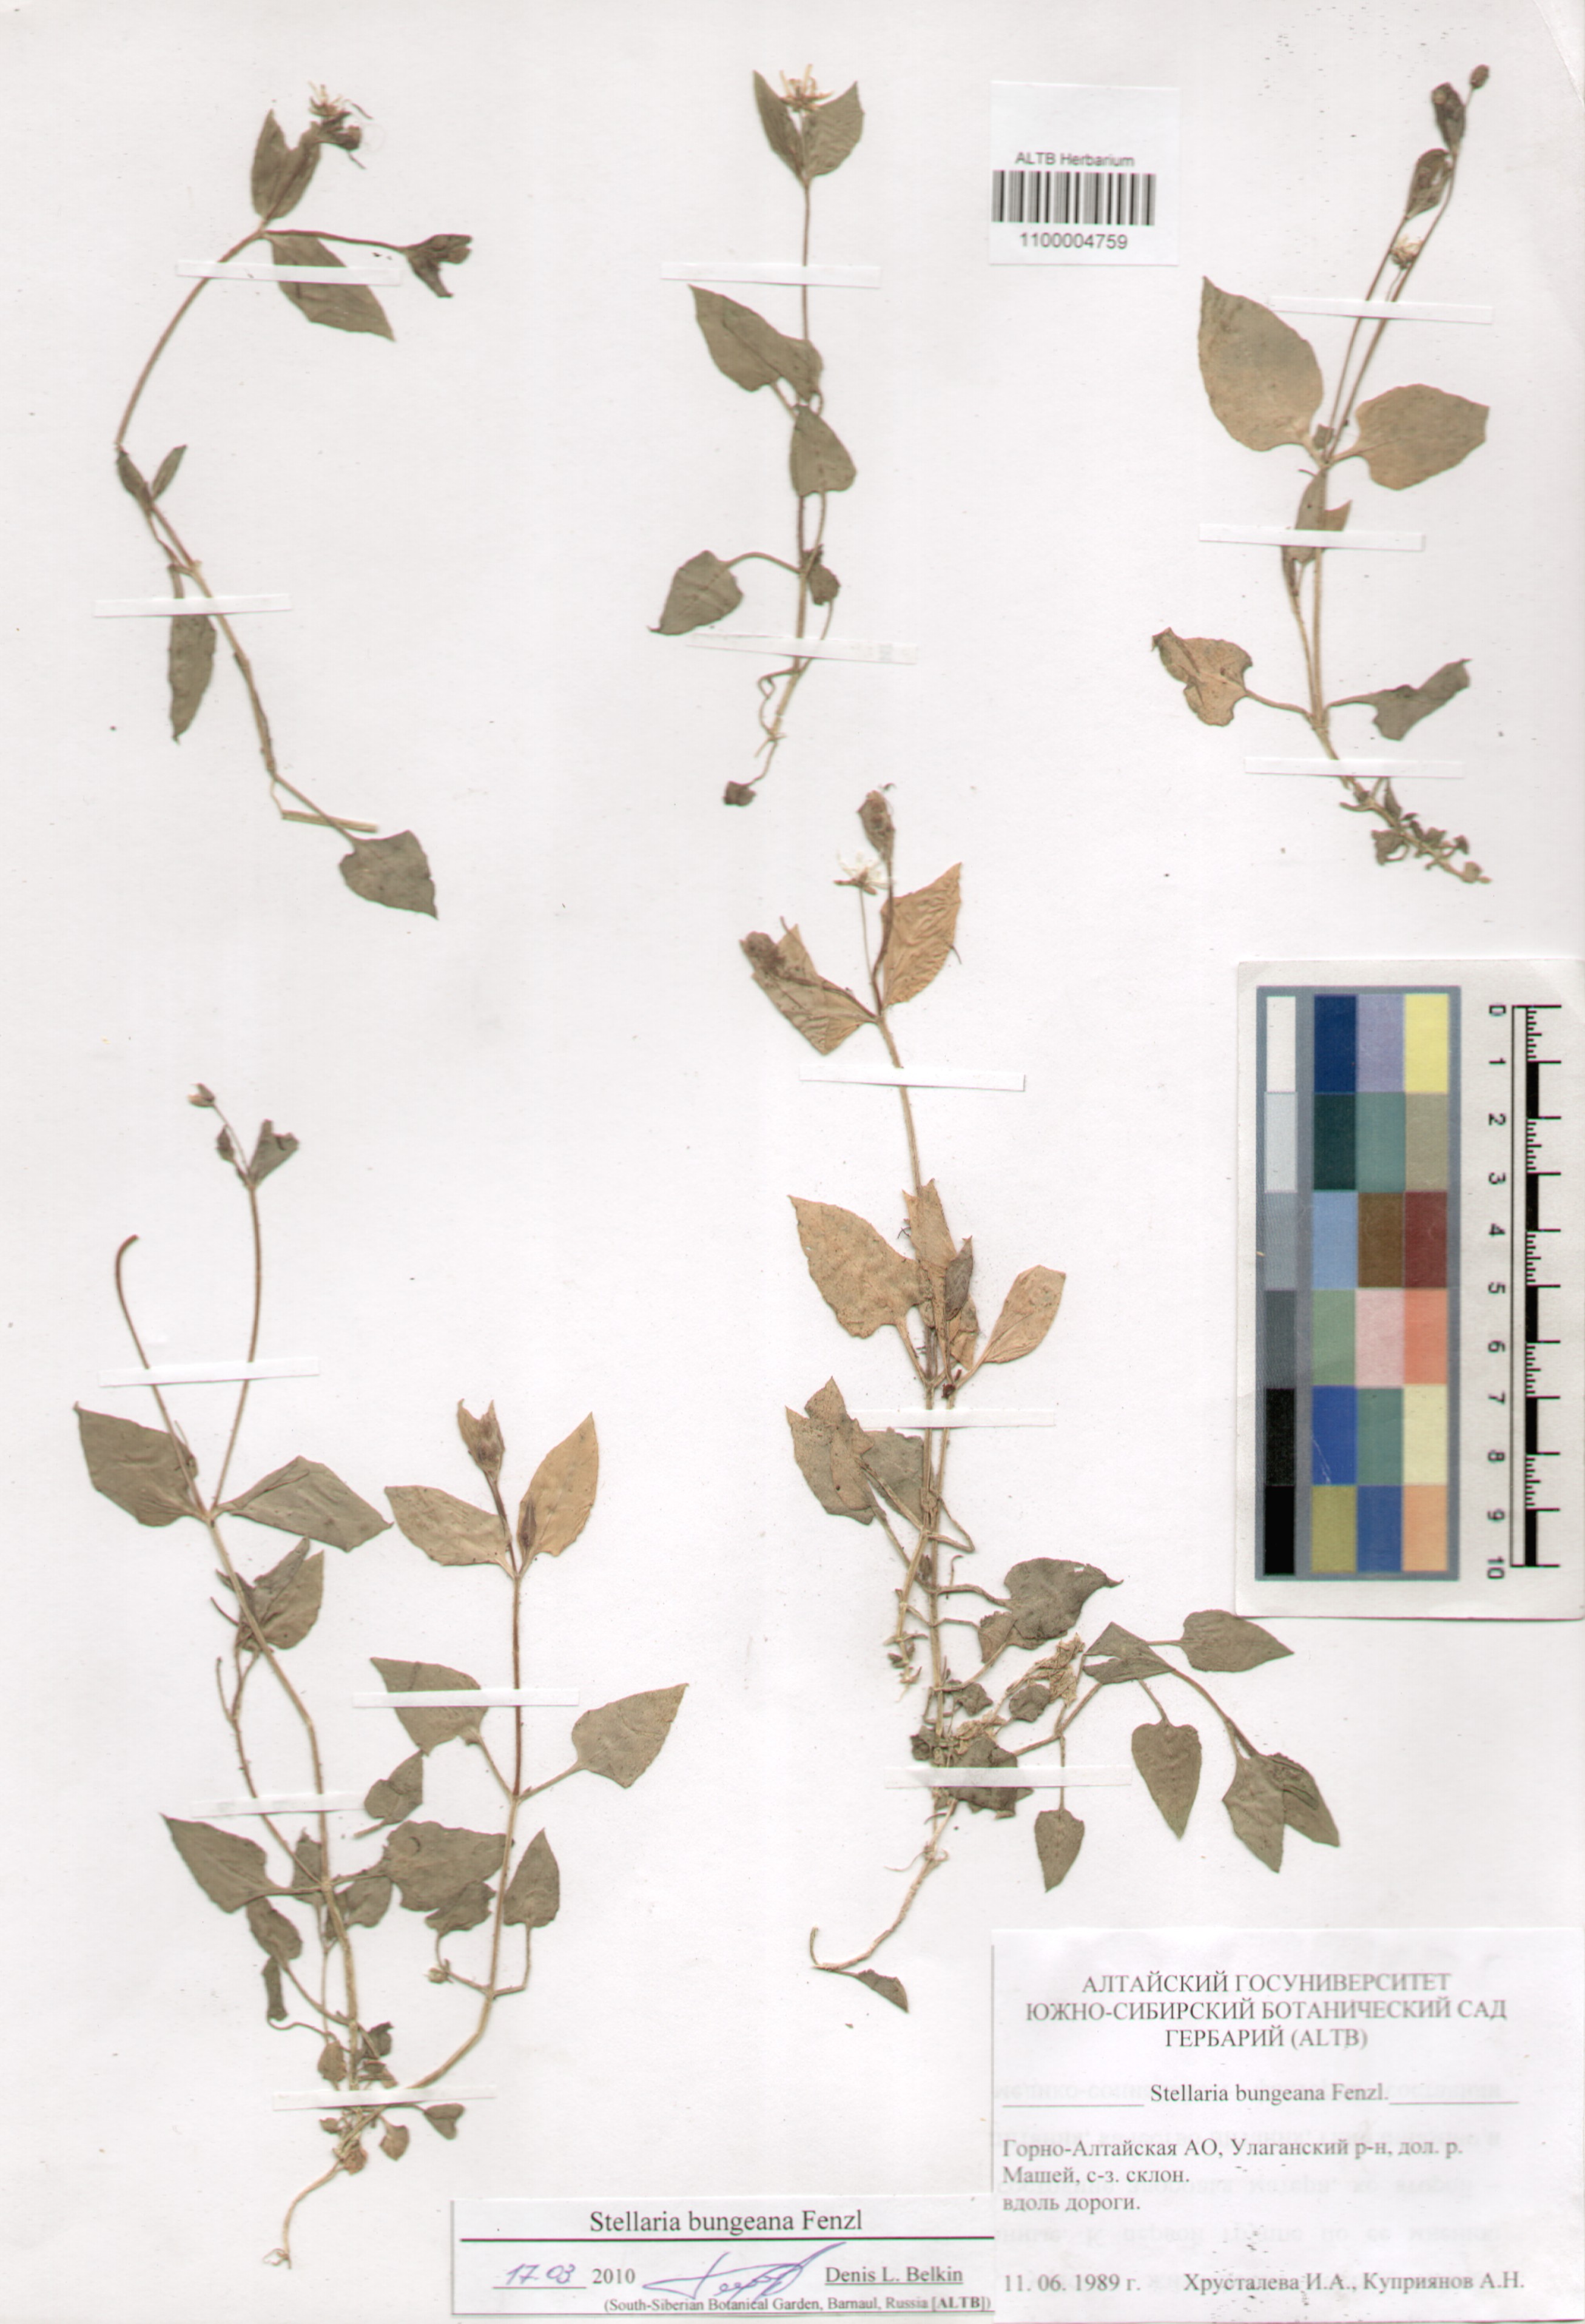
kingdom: Plantae
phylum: Tracheophyta
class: Magnoliopsida
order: Caryophyllales
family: Caryophyllaceae
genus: Stellaria
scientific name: Stellaria bungeana
